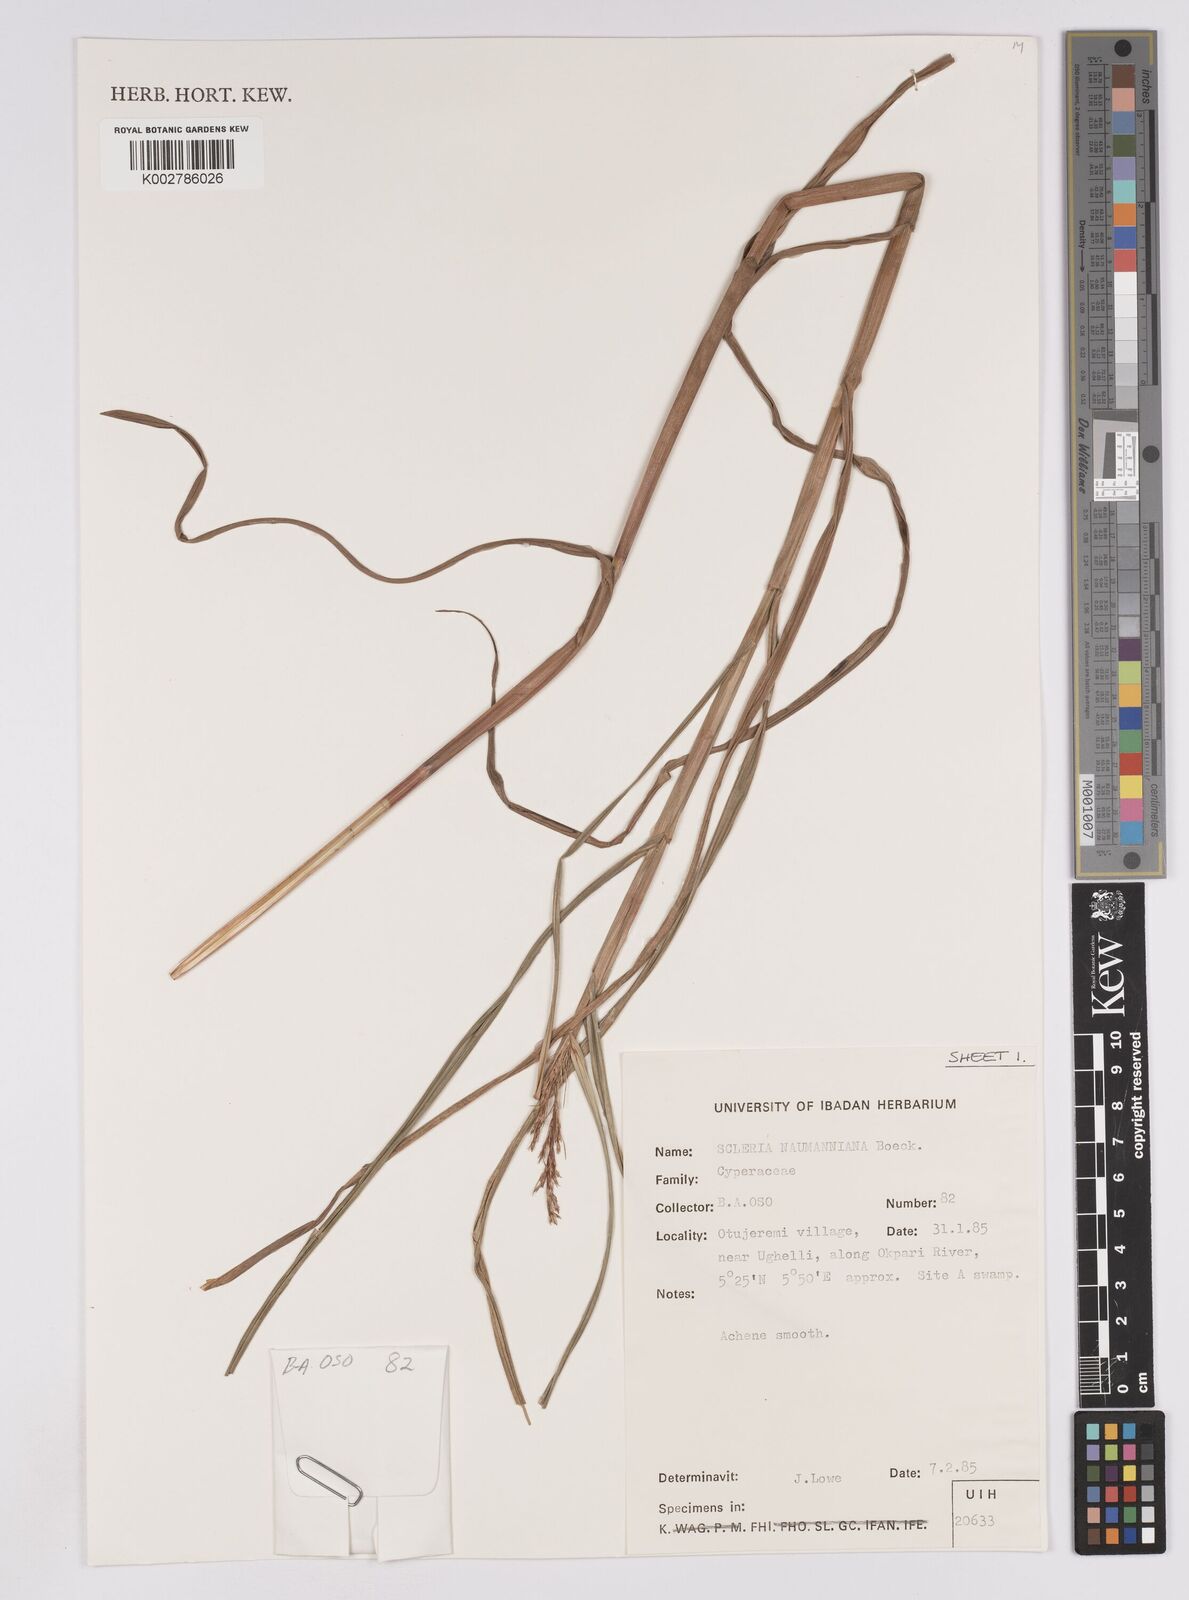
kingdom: Plantae
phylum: Tracheophyta
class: Liliopsida
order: Poales
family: Cyperaceae
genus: Scleria
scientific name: Scleria naumanniana
